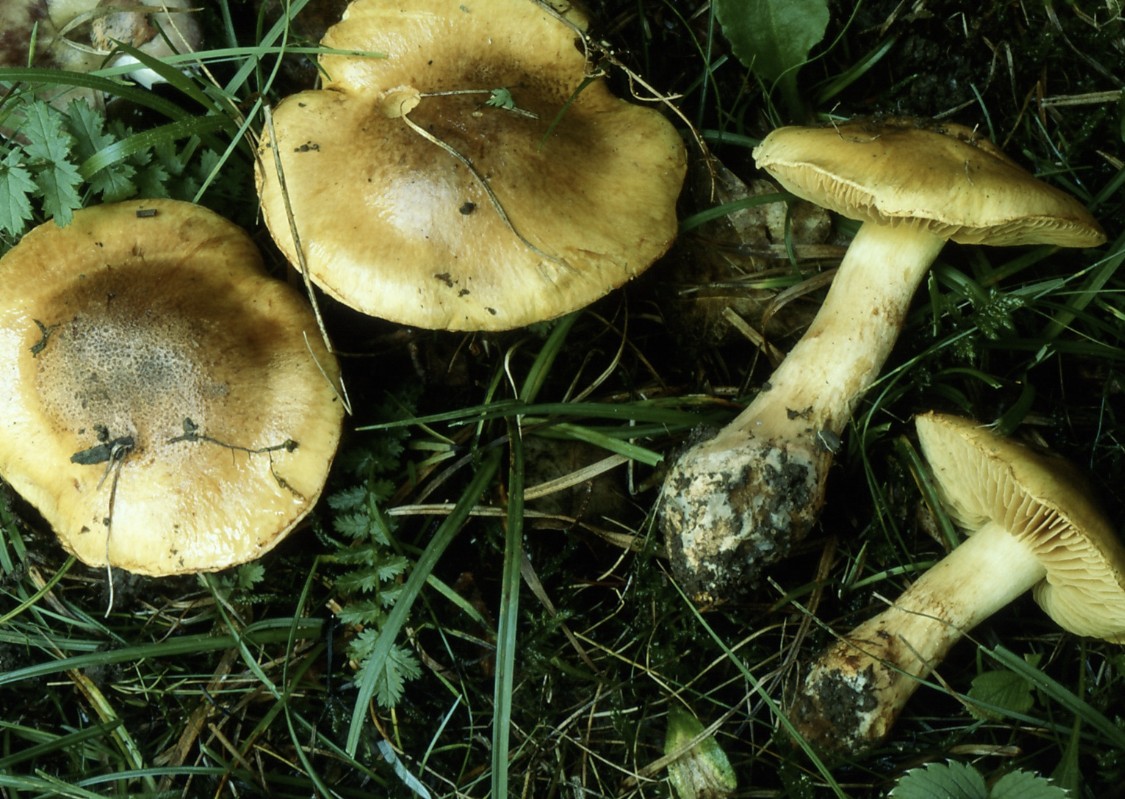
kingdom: Fungi
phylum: Basidiomycota
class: Agaricomycetes
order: Agaricales
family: Cortinariaceae
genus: Phlegmacium
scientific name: Phlegmacium majoranae
